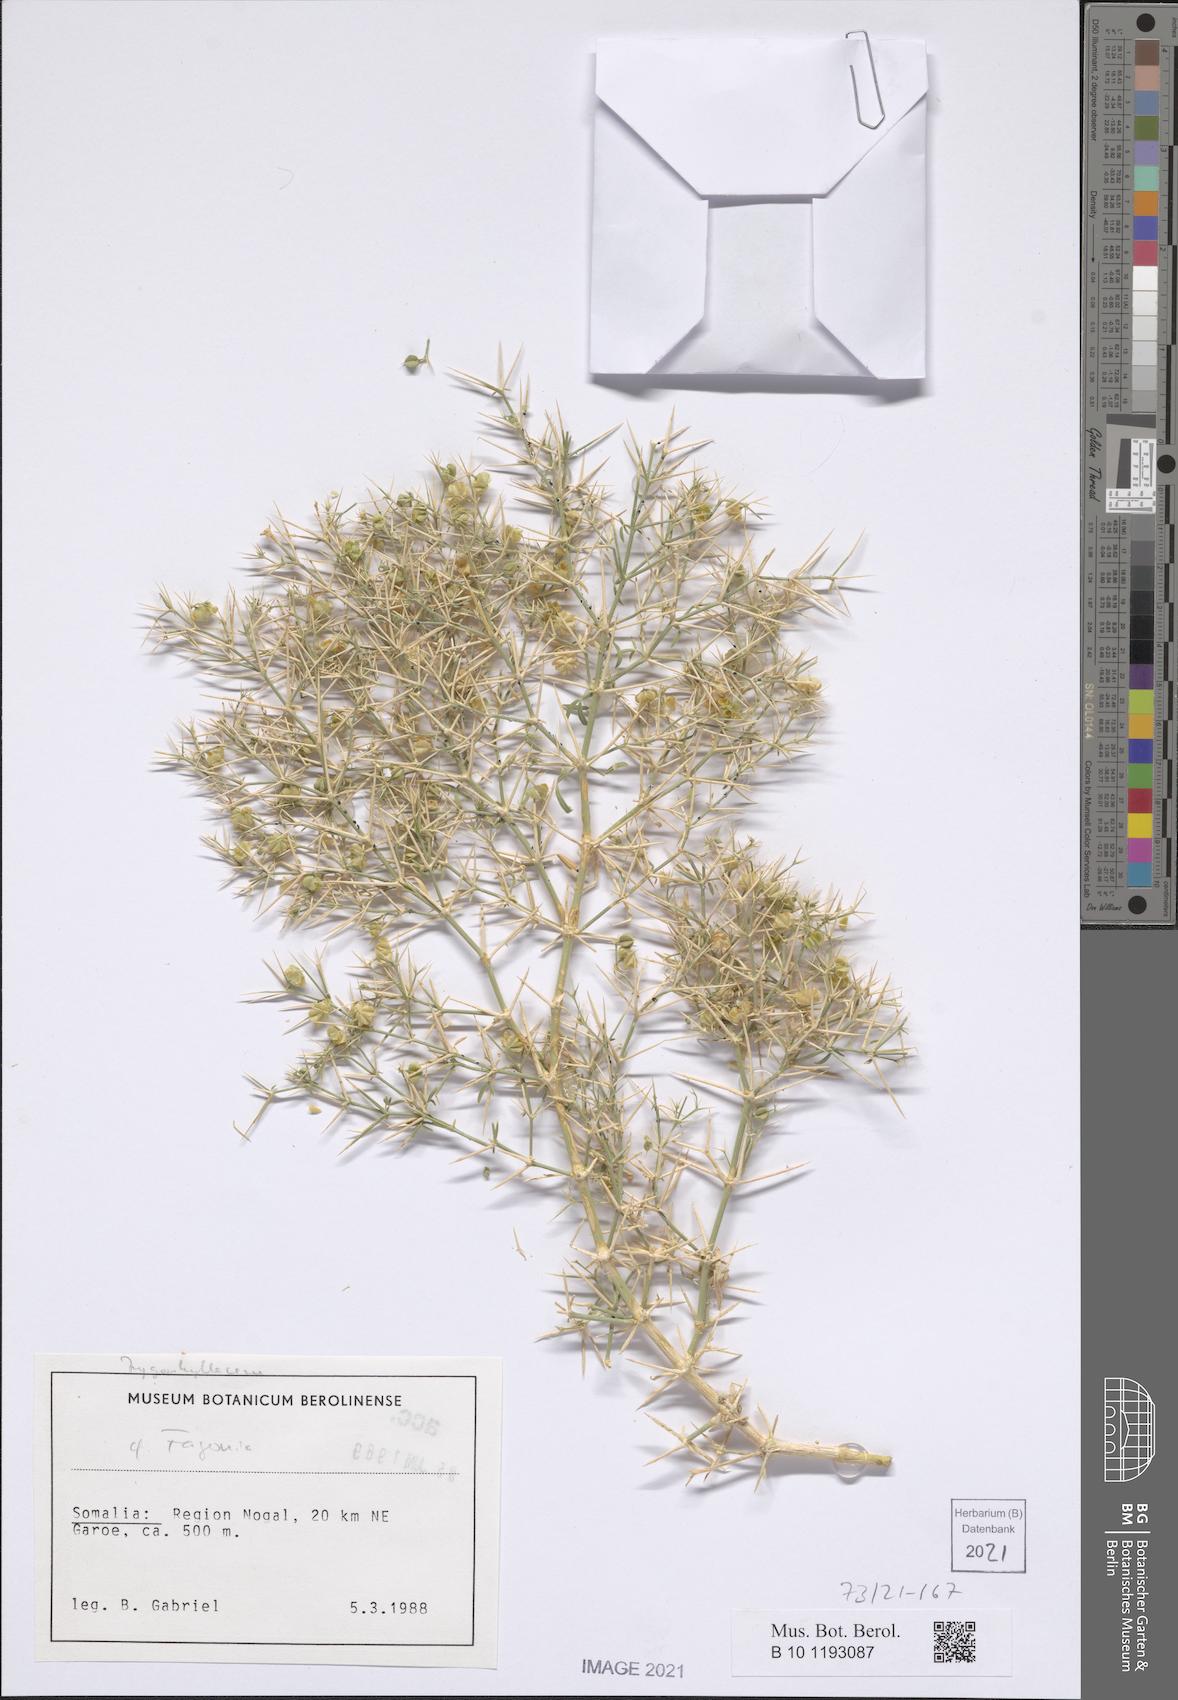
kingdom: Plantae
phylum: Tracheophyta
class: Magnoliopsida
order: Zygophyllales
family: Zygophyllaceae
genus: Fagonia
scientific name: Fagonia paulayana
